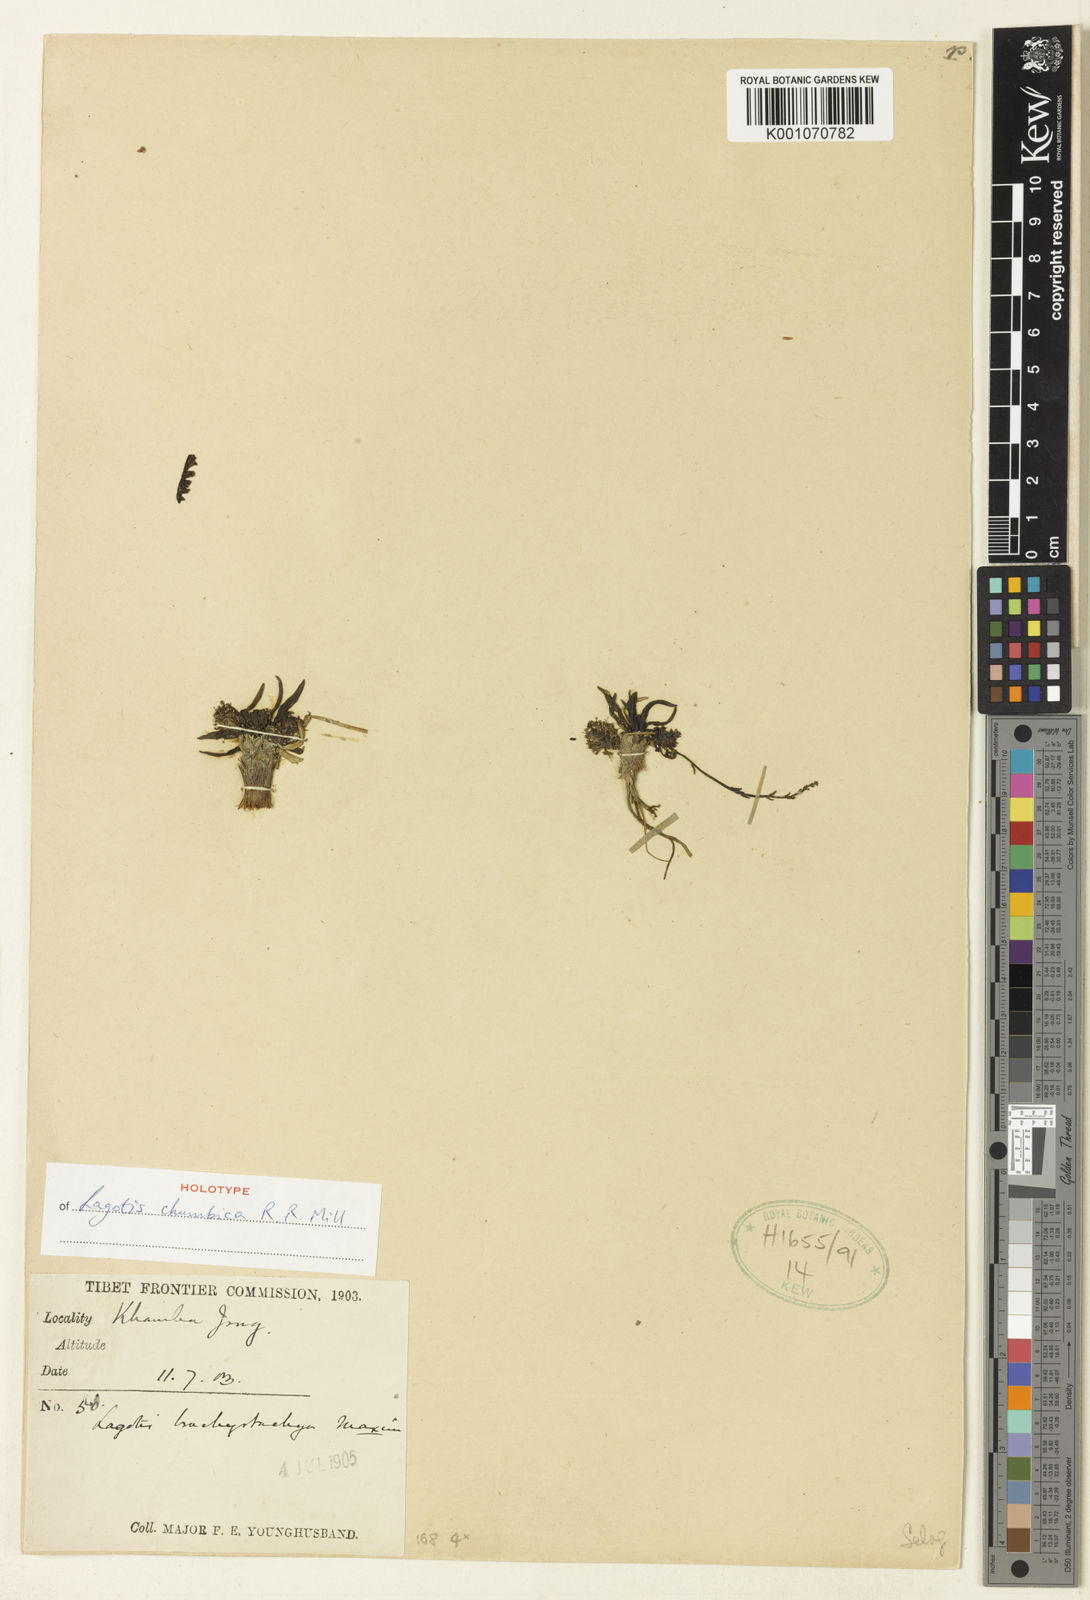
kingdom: Plantae
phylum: Tracheophyta
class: Magnoliopsida
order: Lamiales
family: Plantaginaceae
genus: Lagotis
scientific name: Lagotis chumbica
